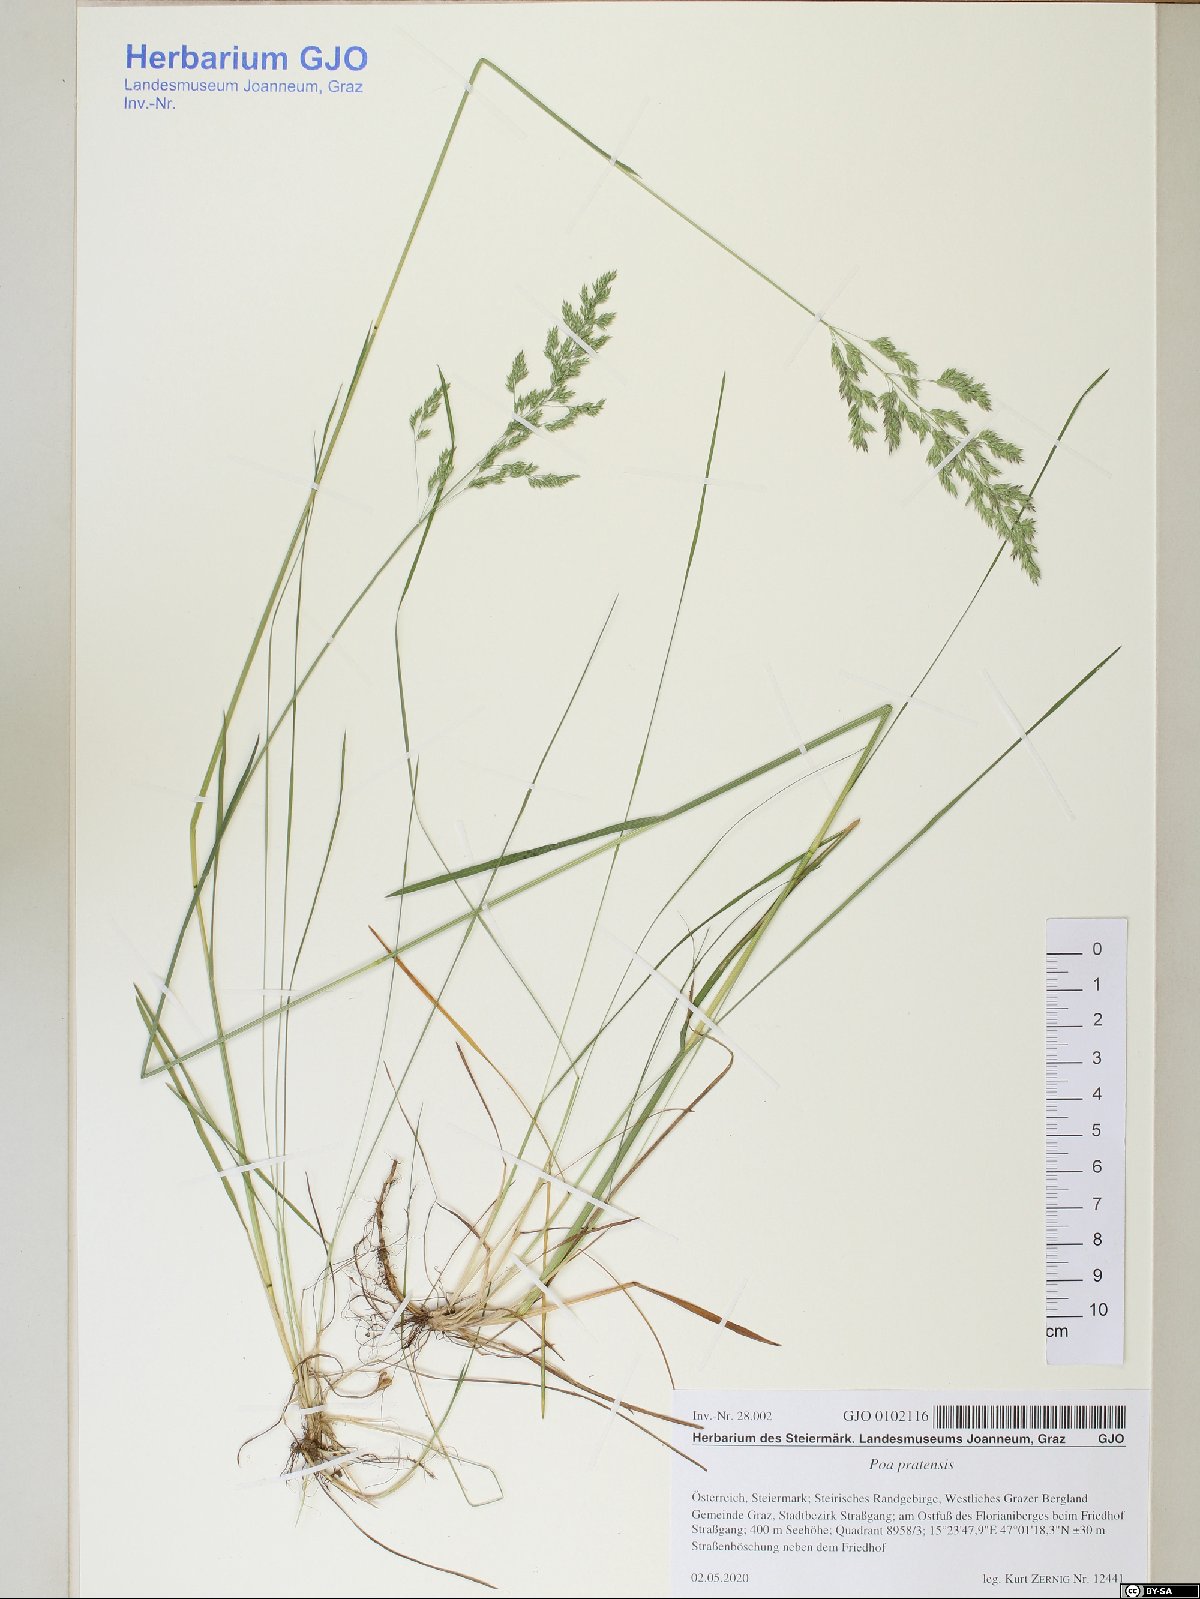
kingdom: Plantae
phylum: Tracheophyta
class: Liliopsida
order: Poales
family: Poaceae
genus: Poa
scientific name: Poa pratensis
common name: Kentucky bluegrass
